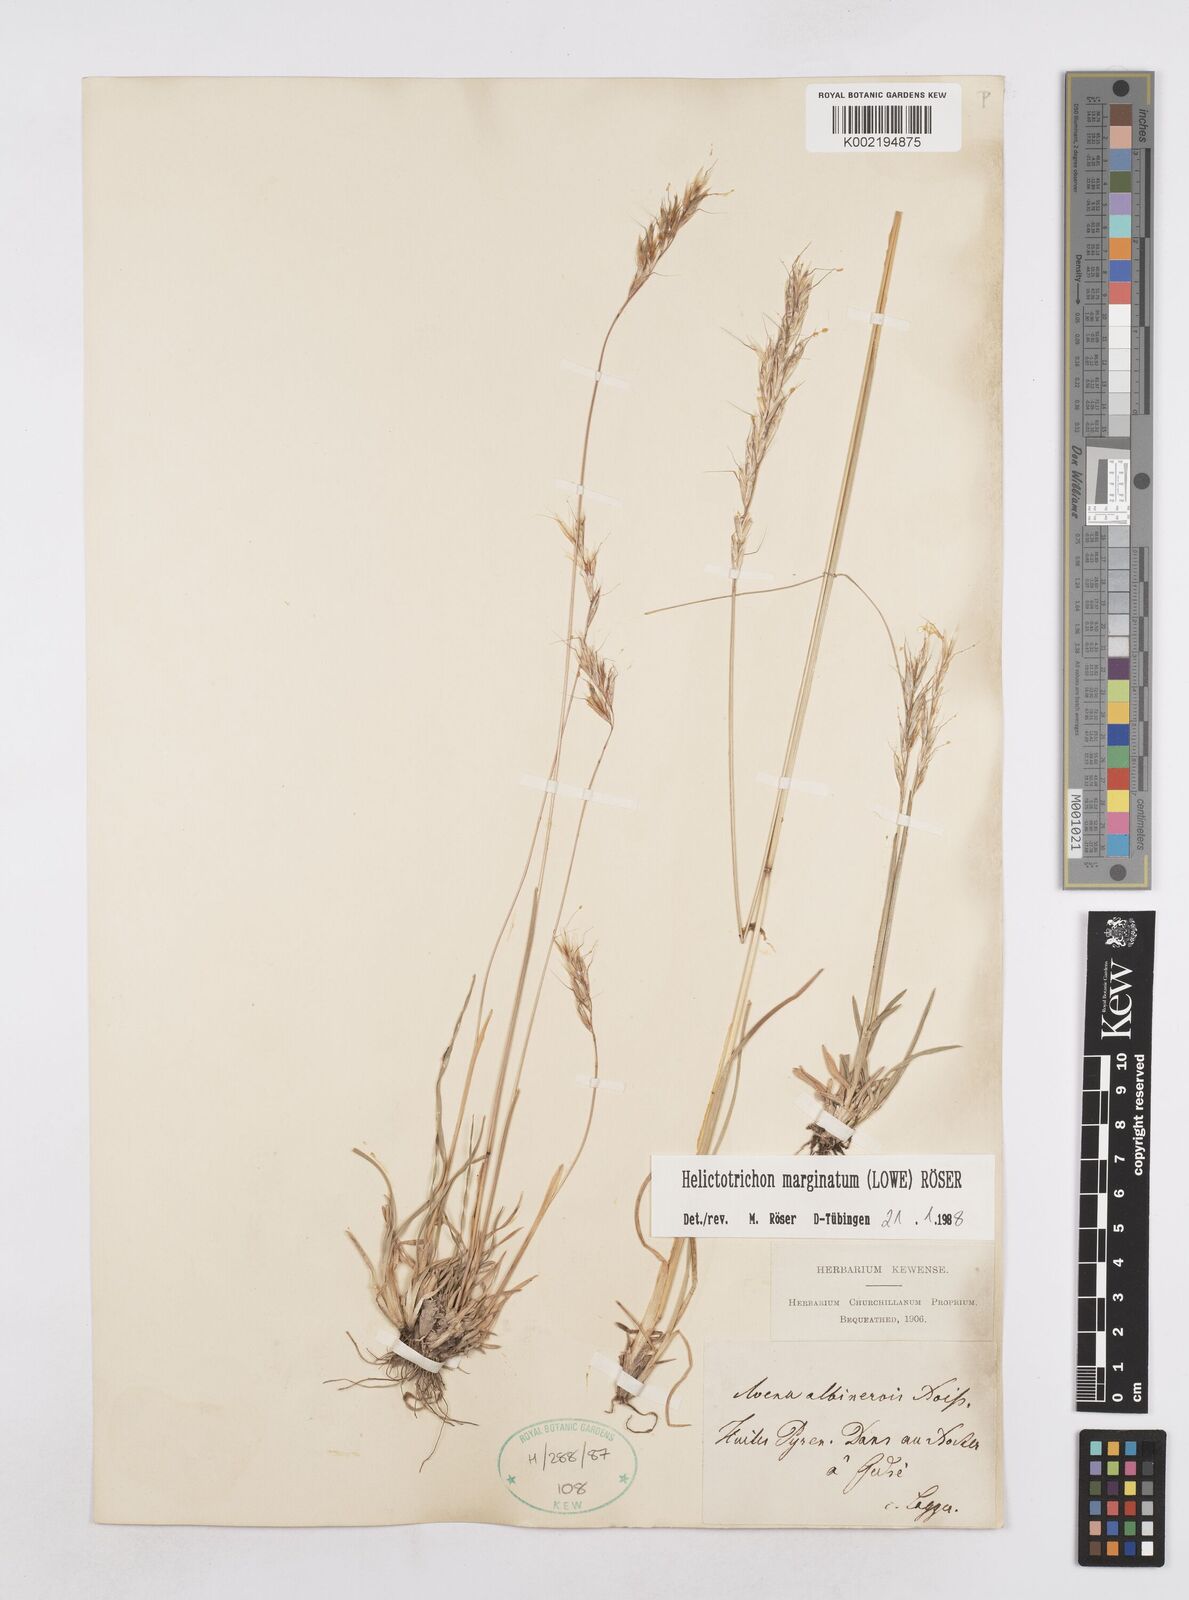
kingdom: Plantae
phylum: Tracheophyta
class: Liliopsida
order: Poales
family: Poaceae
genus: Helictotrichon
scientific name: Helictotrichon
